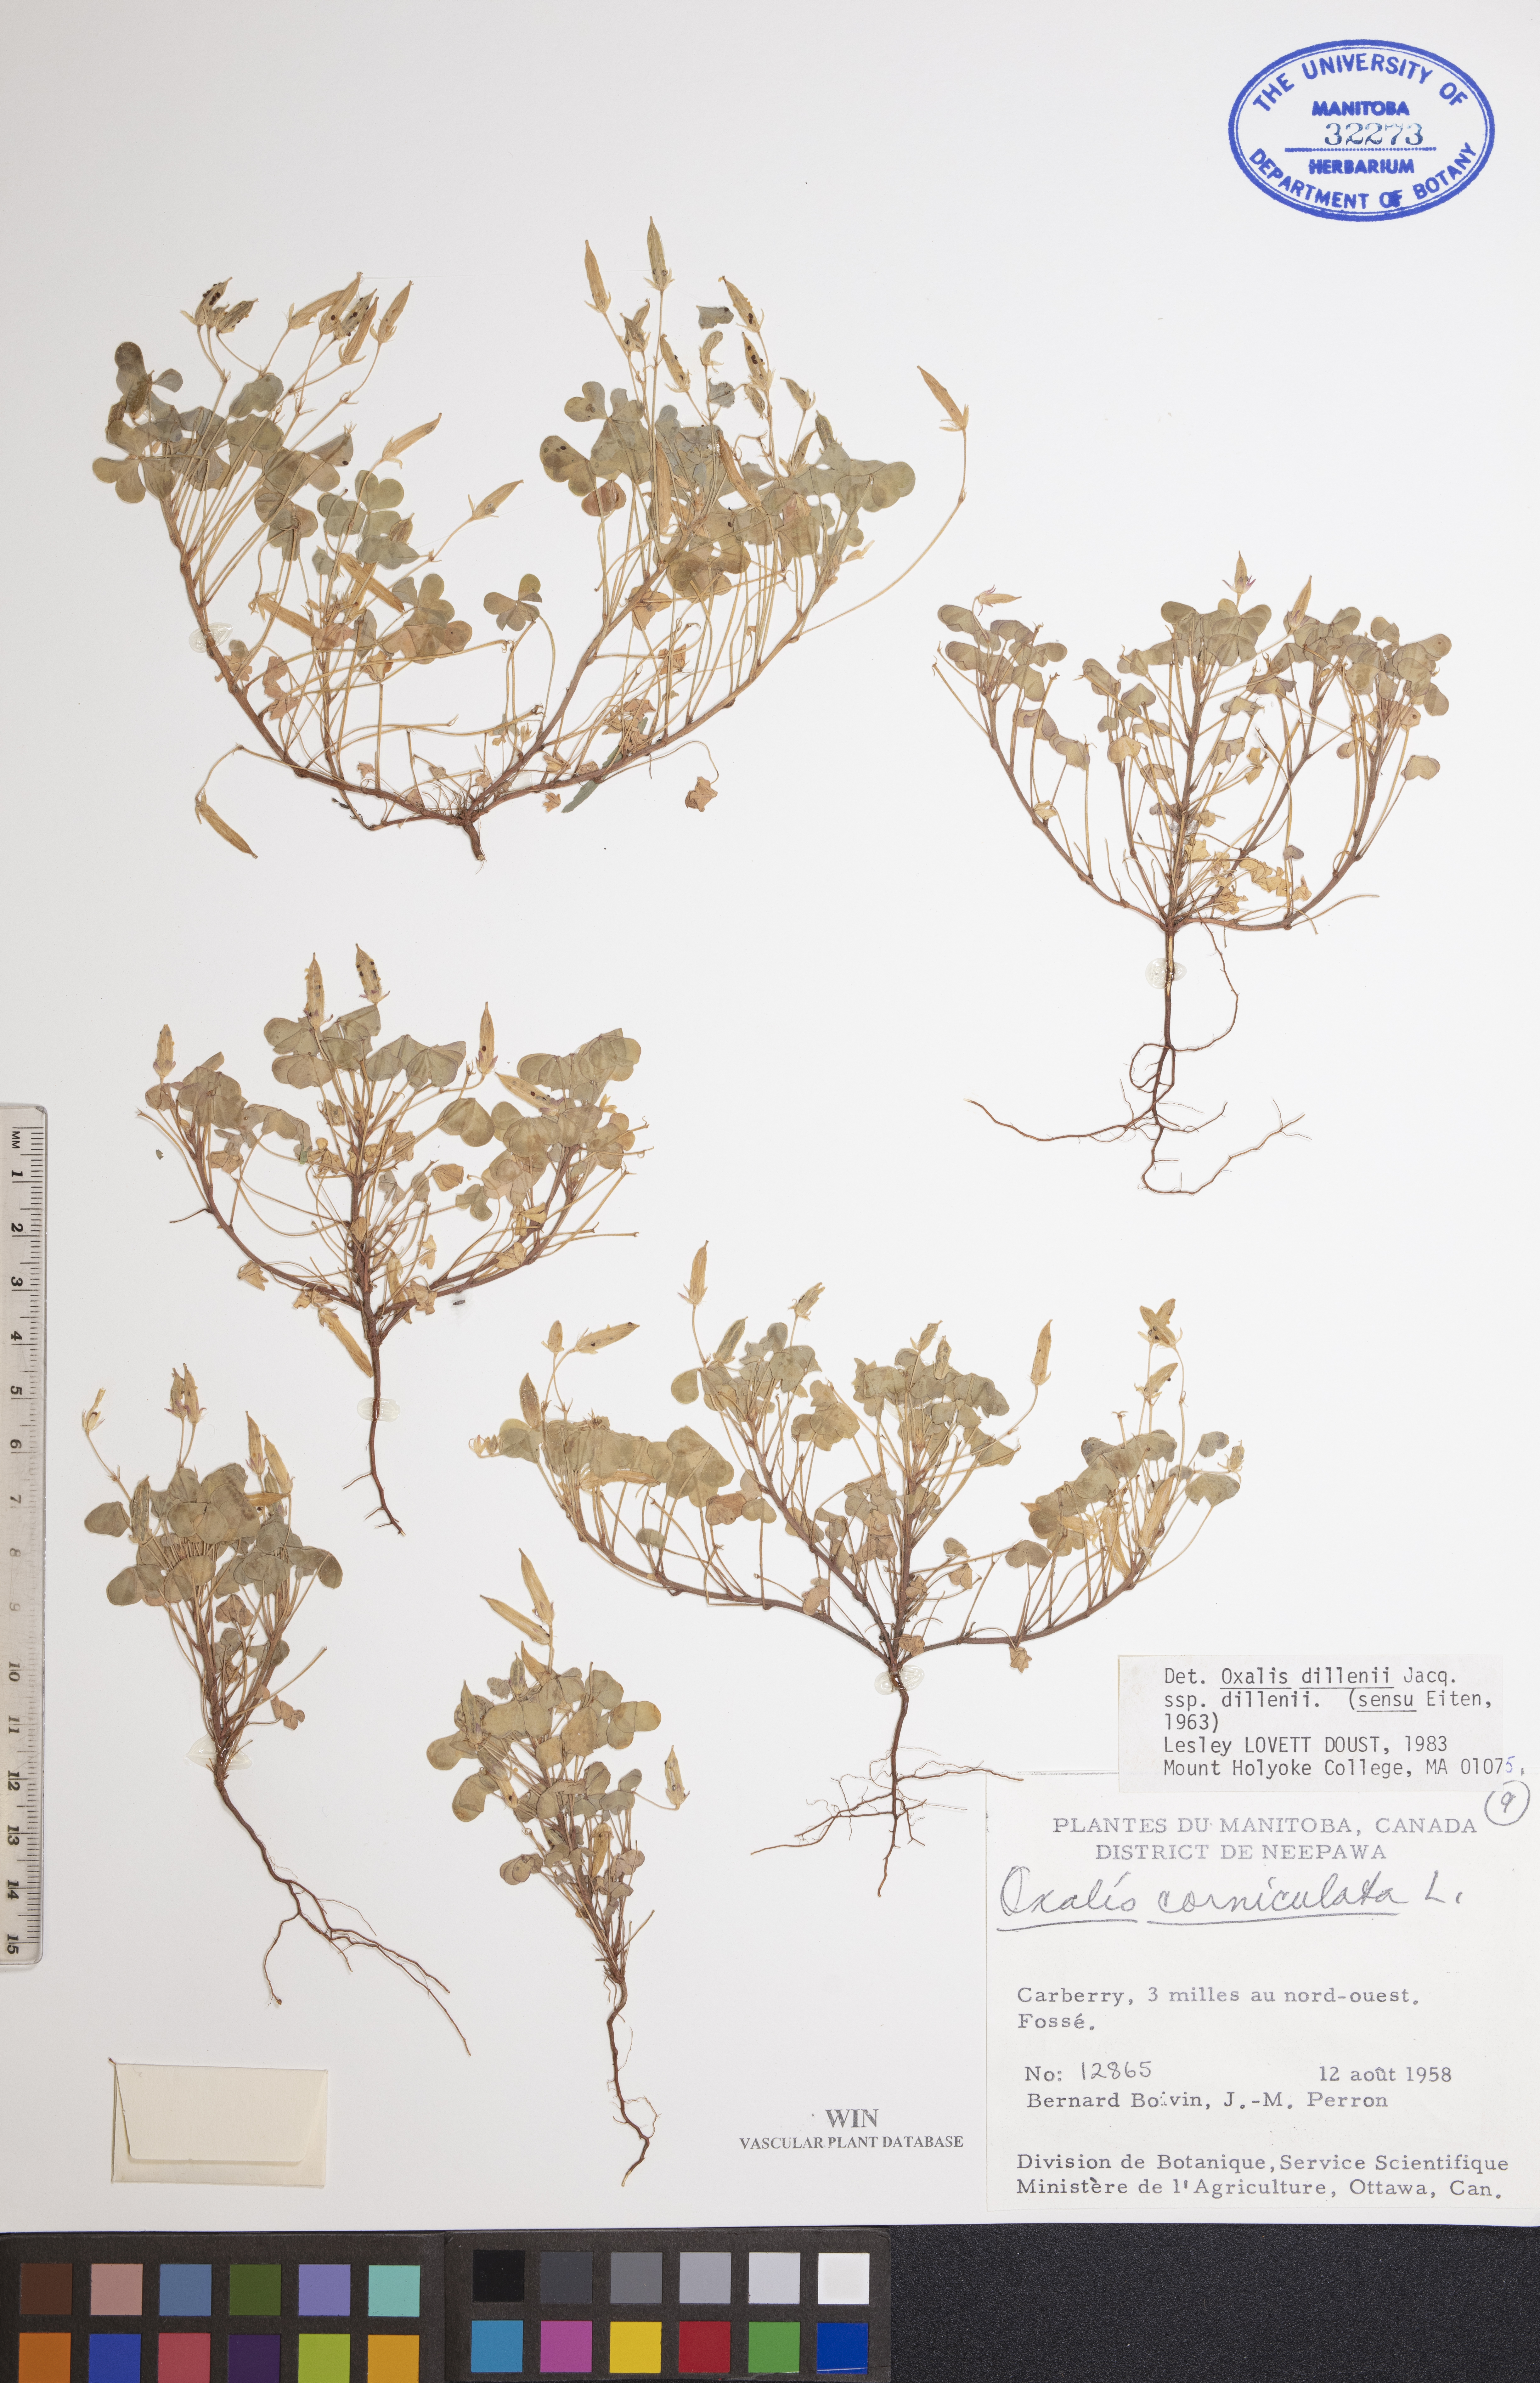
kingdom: Plantae
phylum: Tracheophyta
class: Magnoliopsida
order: Oxalidales
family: Oxalidaceae
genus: Oxalis
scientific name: Oxalis dillenii
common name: Sussex yellow-sorrel
